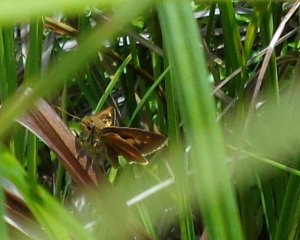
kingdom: Animalia
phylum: Arthropoda
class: Insecta
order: Lepidoptera
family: Hesperiidae
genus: Euphyes
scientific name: Euphyes dion
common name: Dion Skipper
